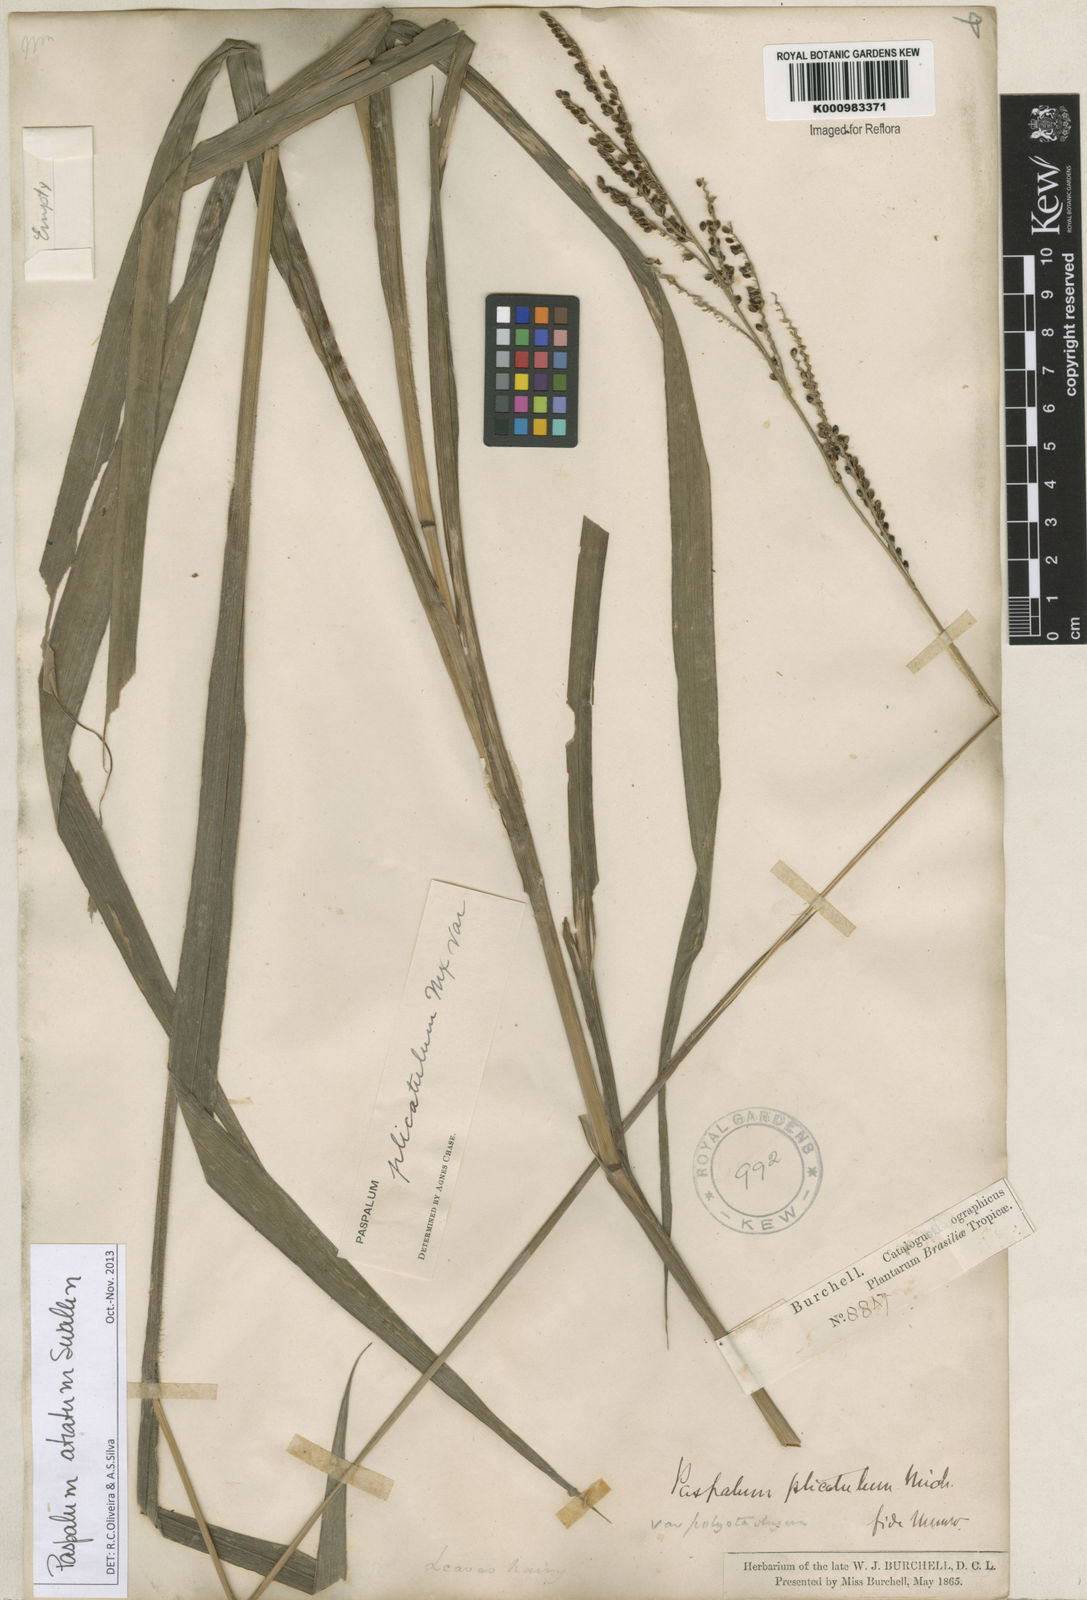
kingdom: Plantae
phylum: Tracheophyta
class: Liliopsida
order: Poales
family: Poaceae
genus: Paspalum
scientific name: Paspalum atratum
